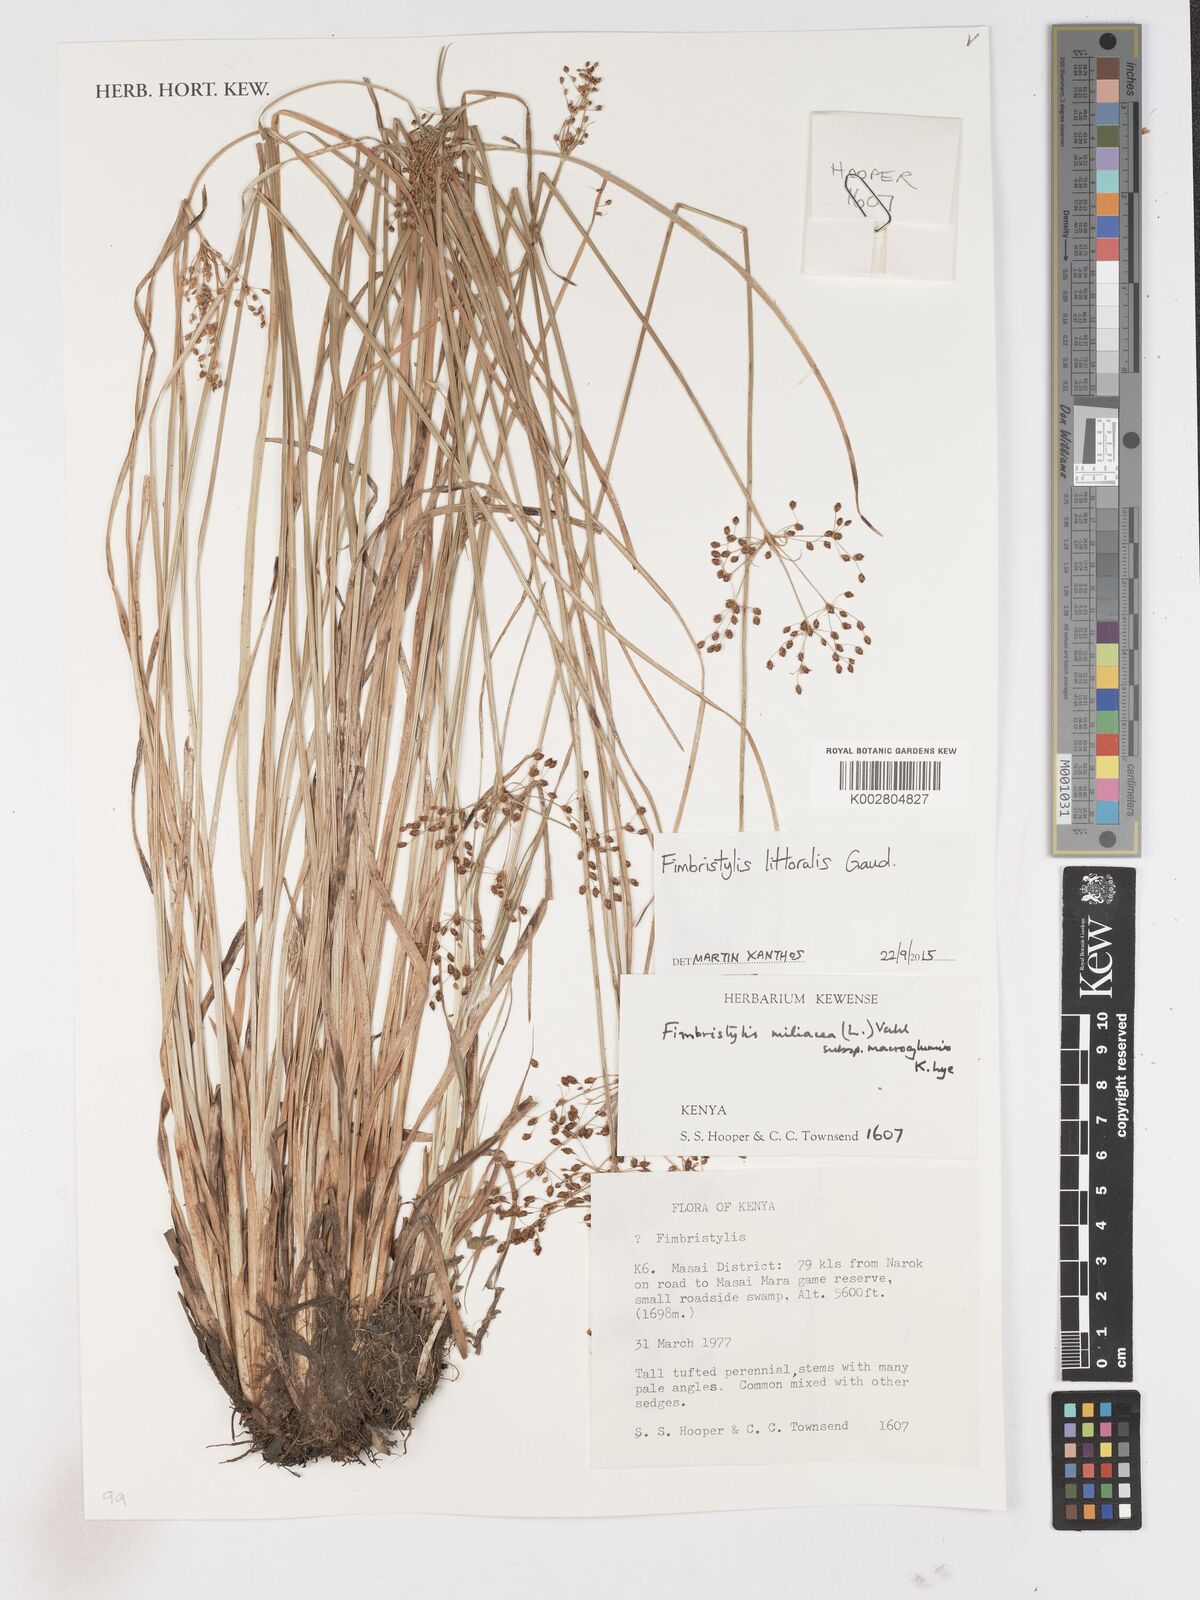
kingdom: Plantae
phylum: Tracheophyta
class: Liliopsida
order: Poales
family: Cyperaceae
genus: Fimbristylis
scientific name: Fimbristylis littoralis
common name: Fimbry
